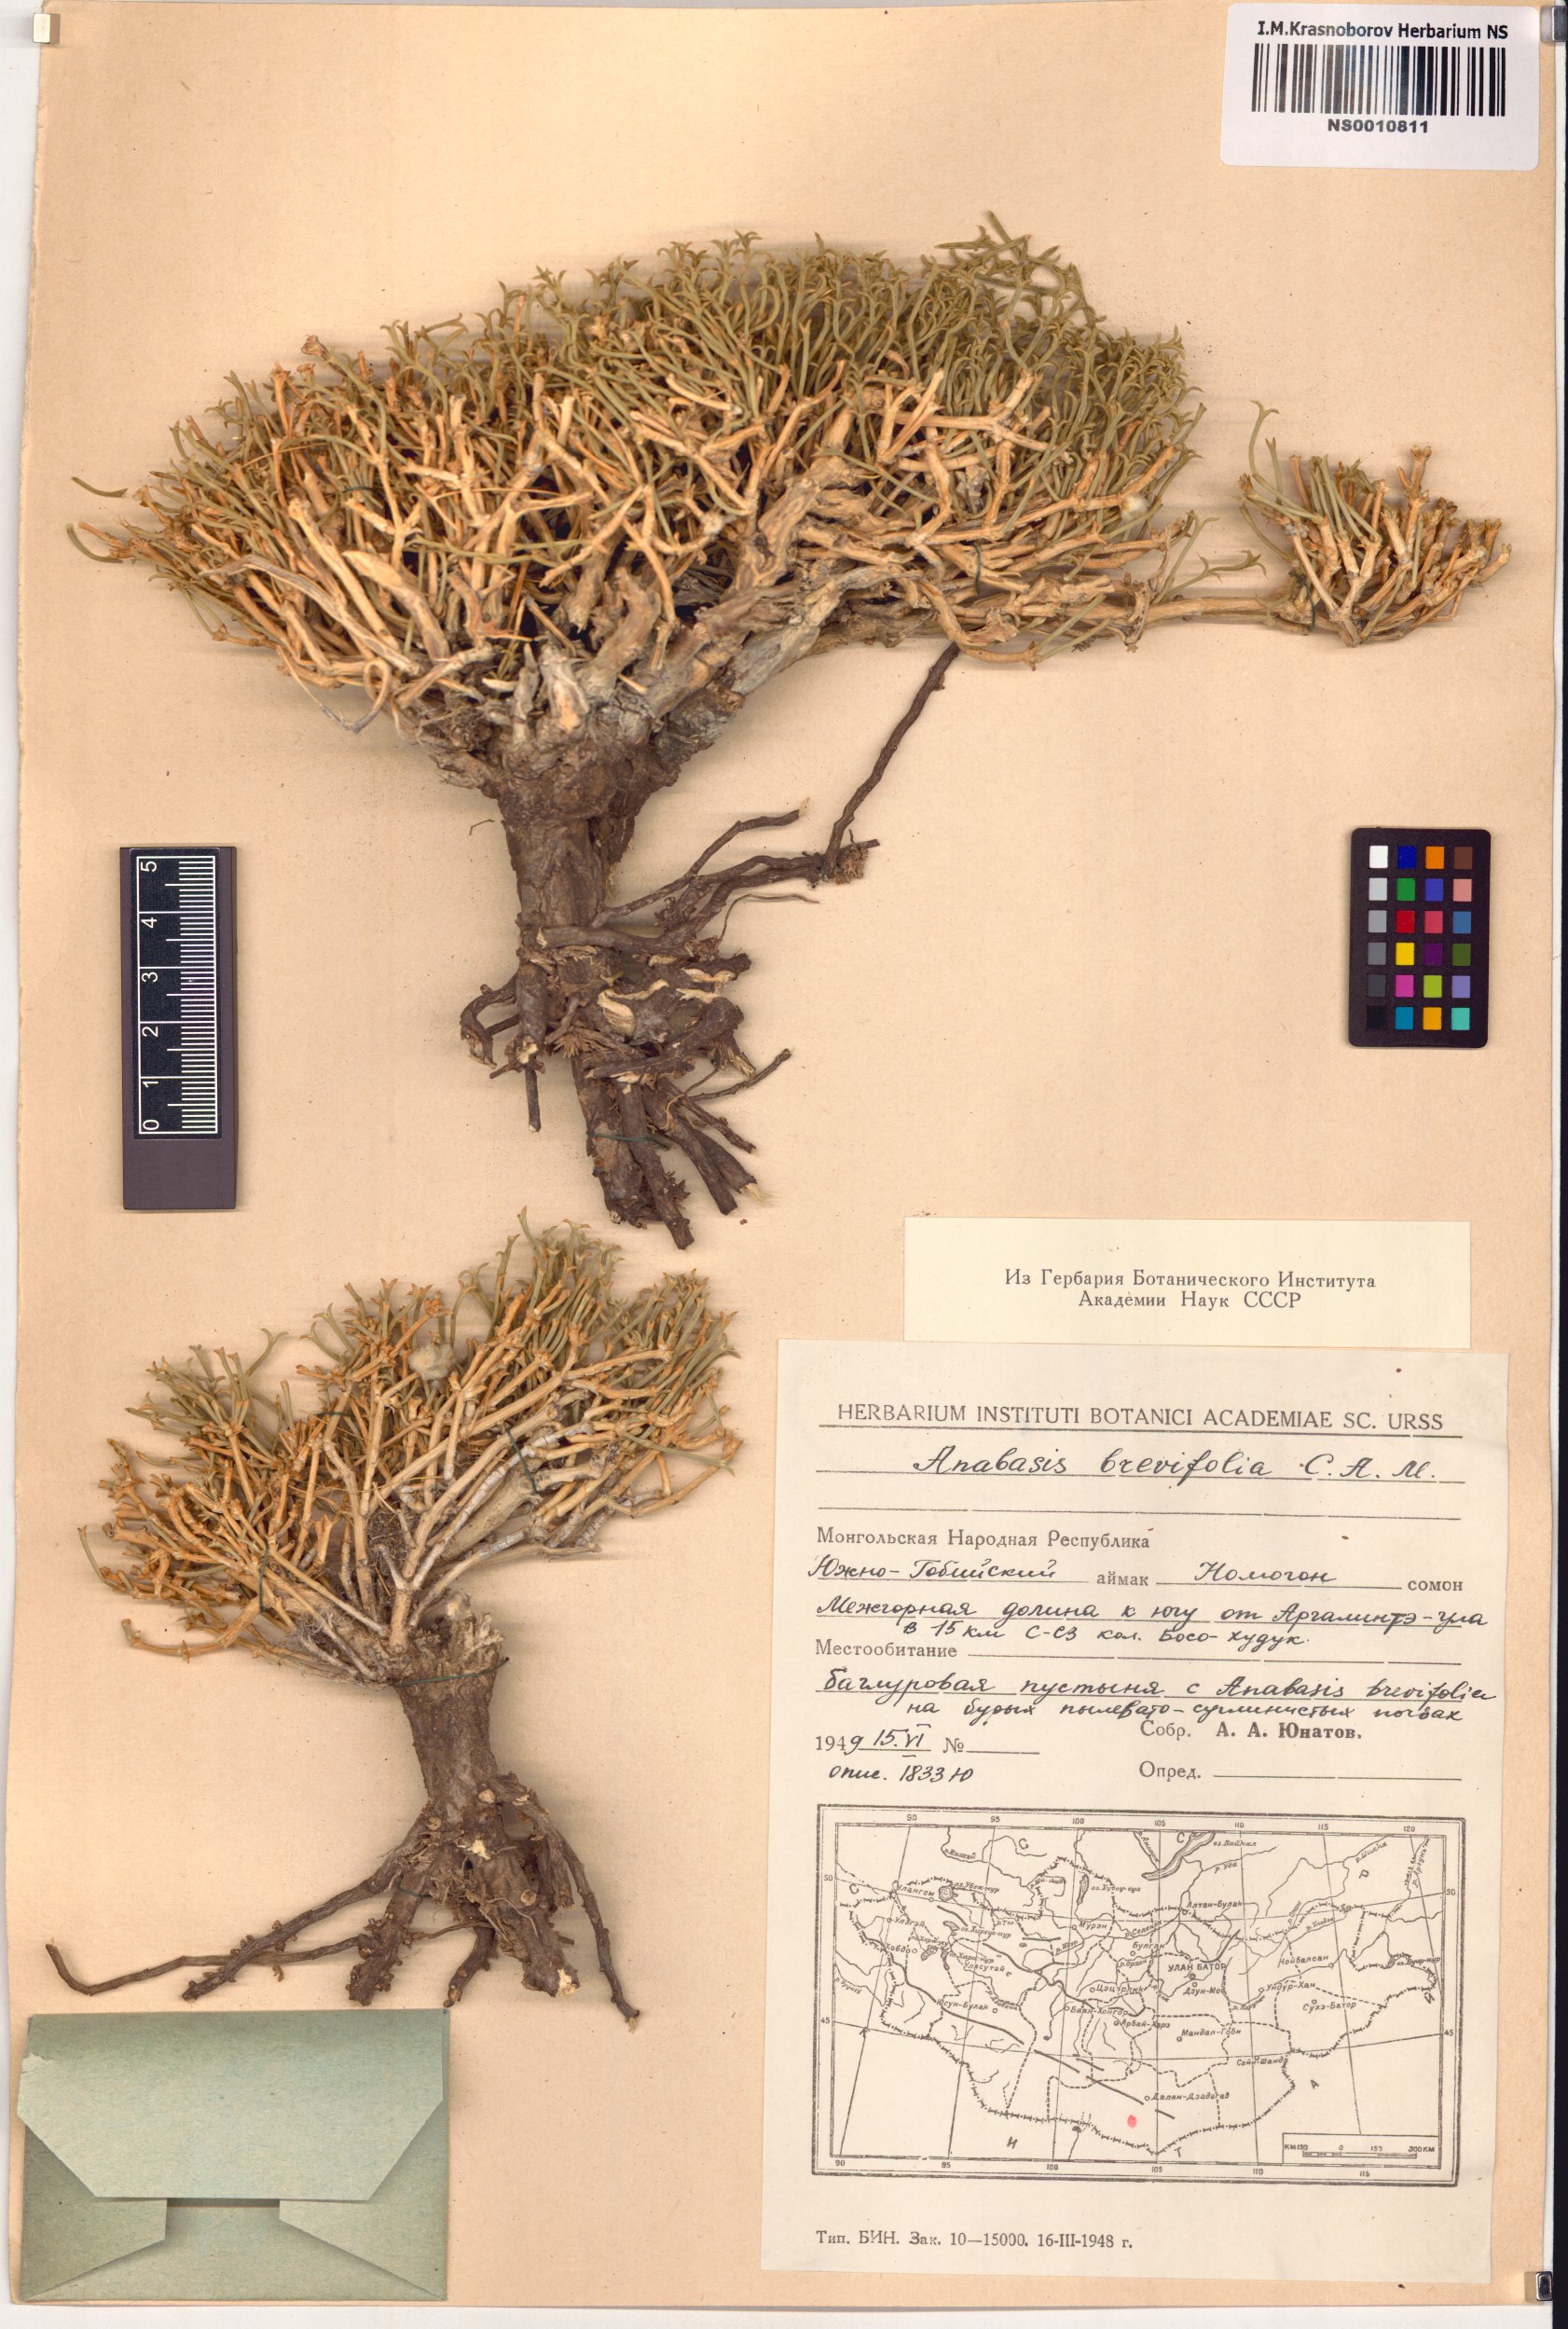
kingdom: Plantae
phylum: Tracheophyta
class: Magnoliopsida
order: Caryophyllales
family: Amaranthaceae
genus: Anabasis
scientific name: Anabasis brevifolia
